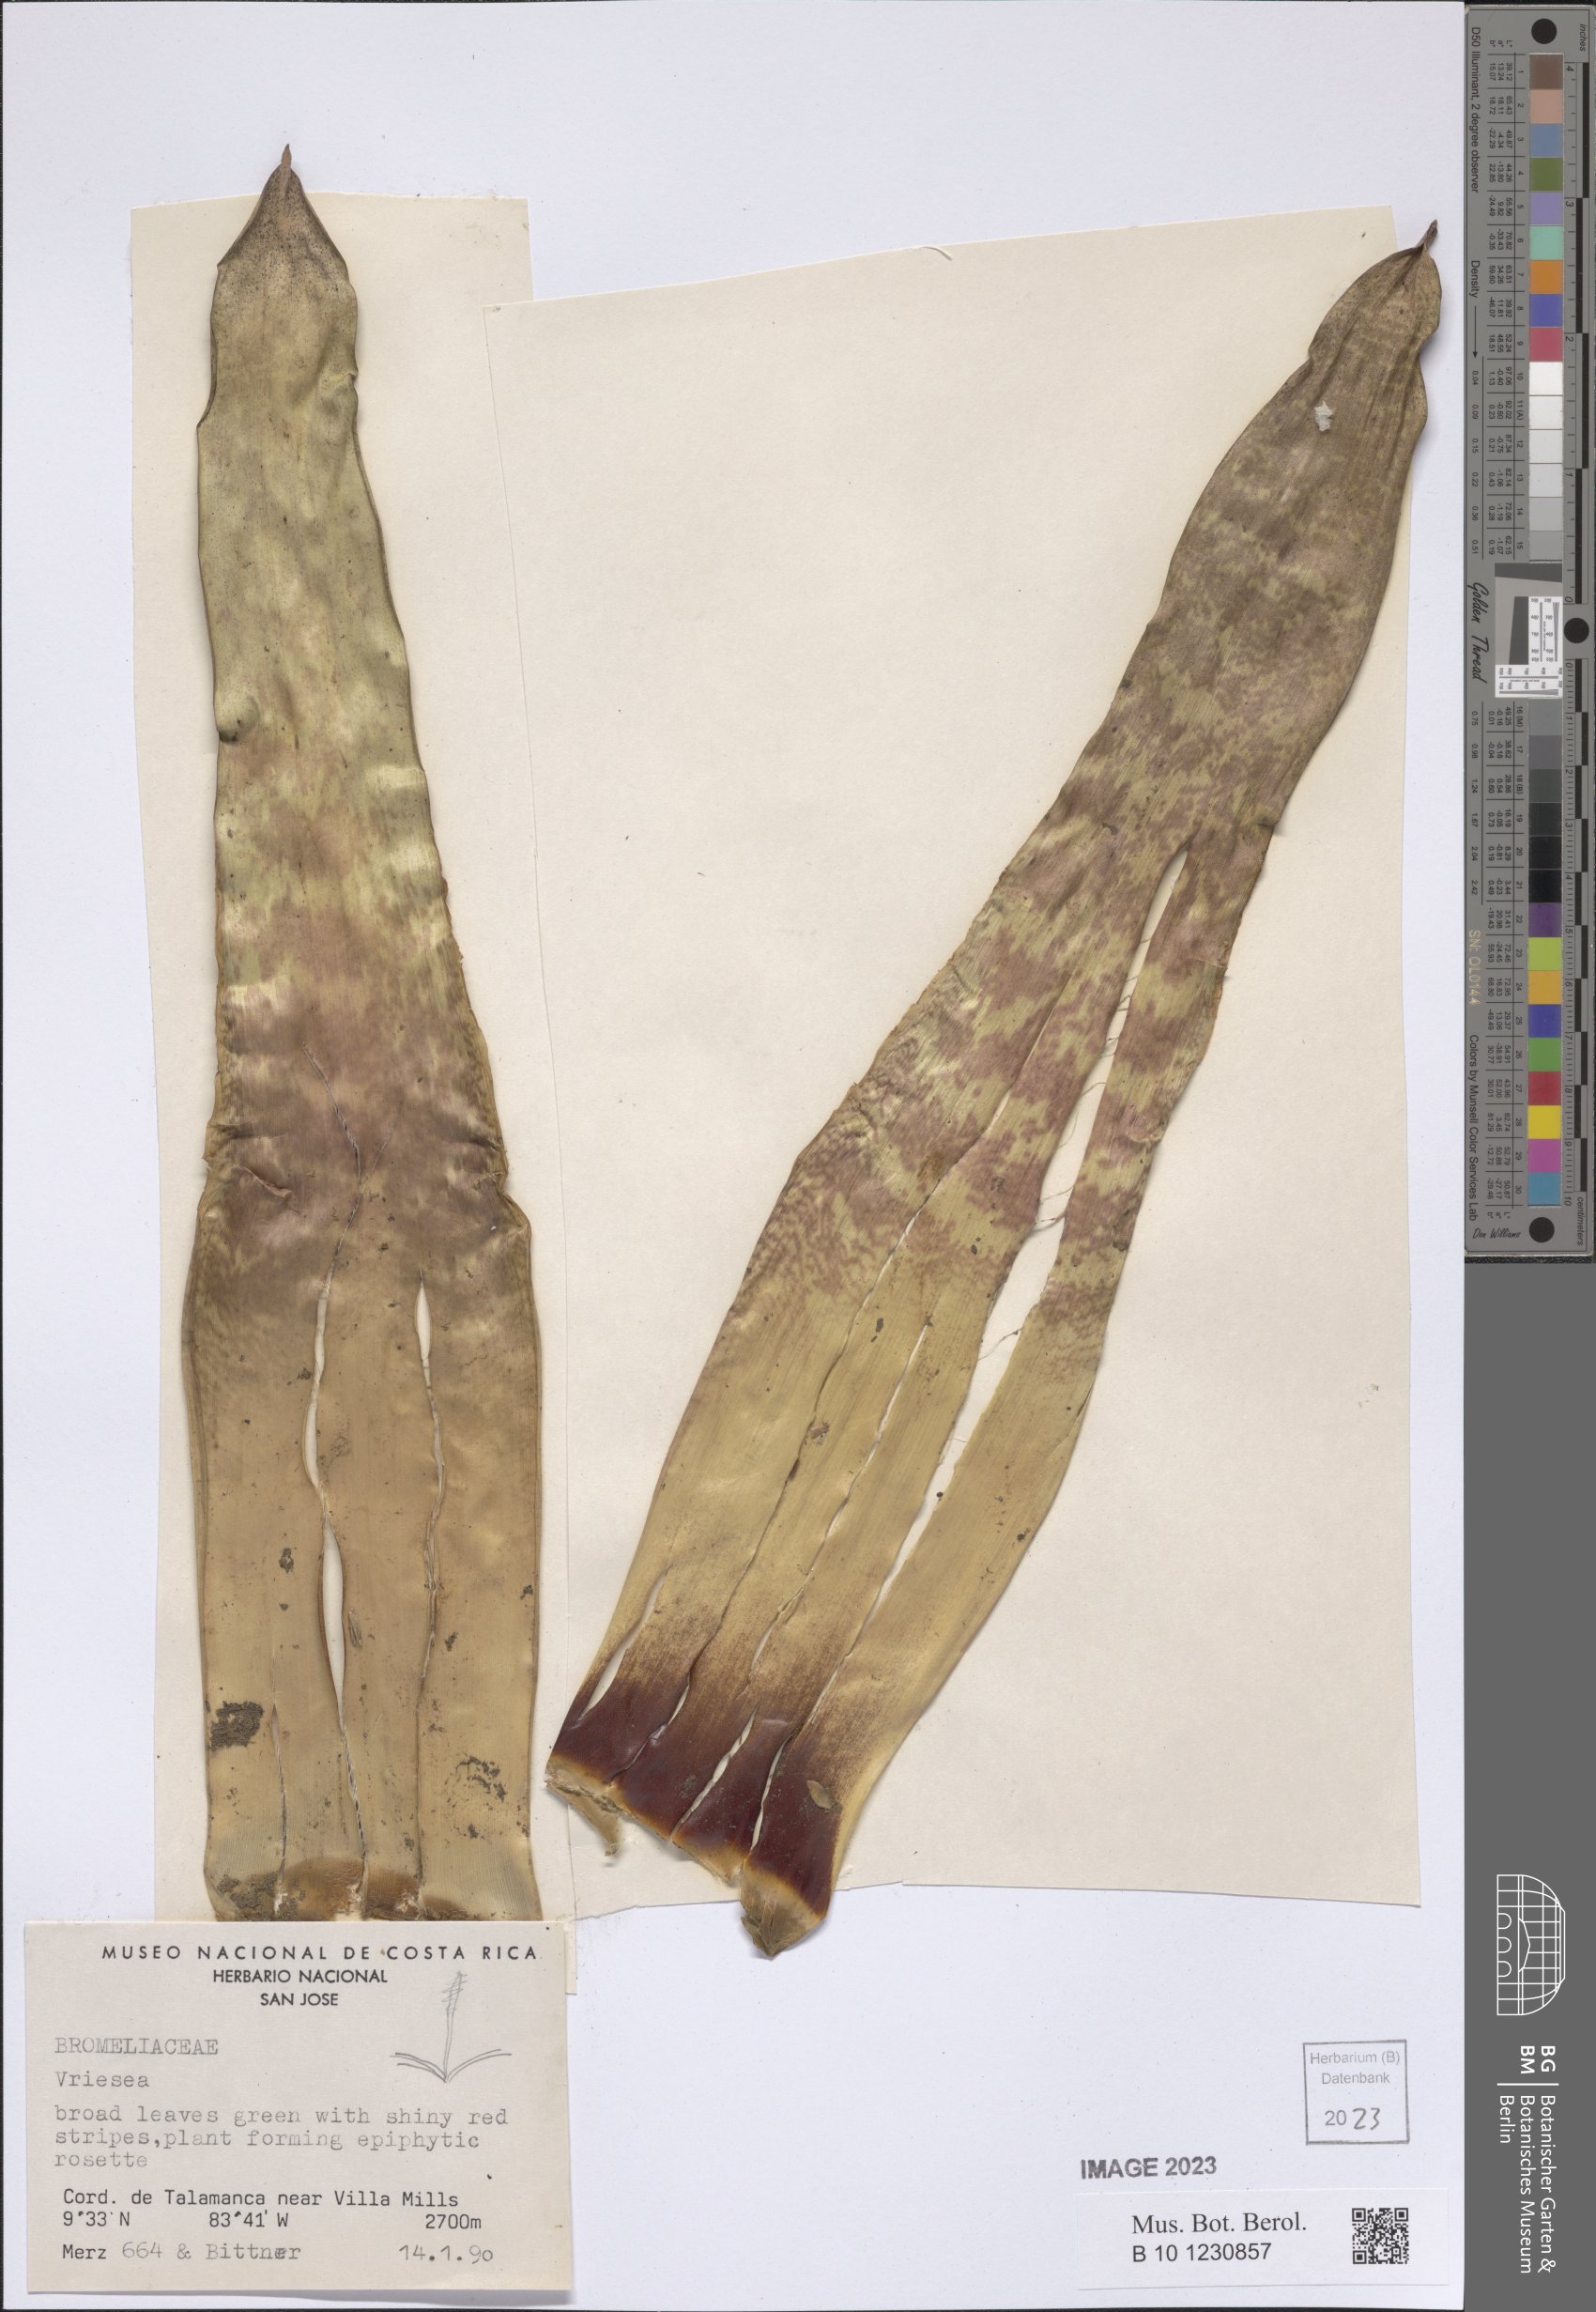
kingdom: Plantae
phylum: Tracheophyta
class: Liliopsida
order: Poales
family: Bromeliaceae
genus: Vriesea
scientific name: Vriesea
